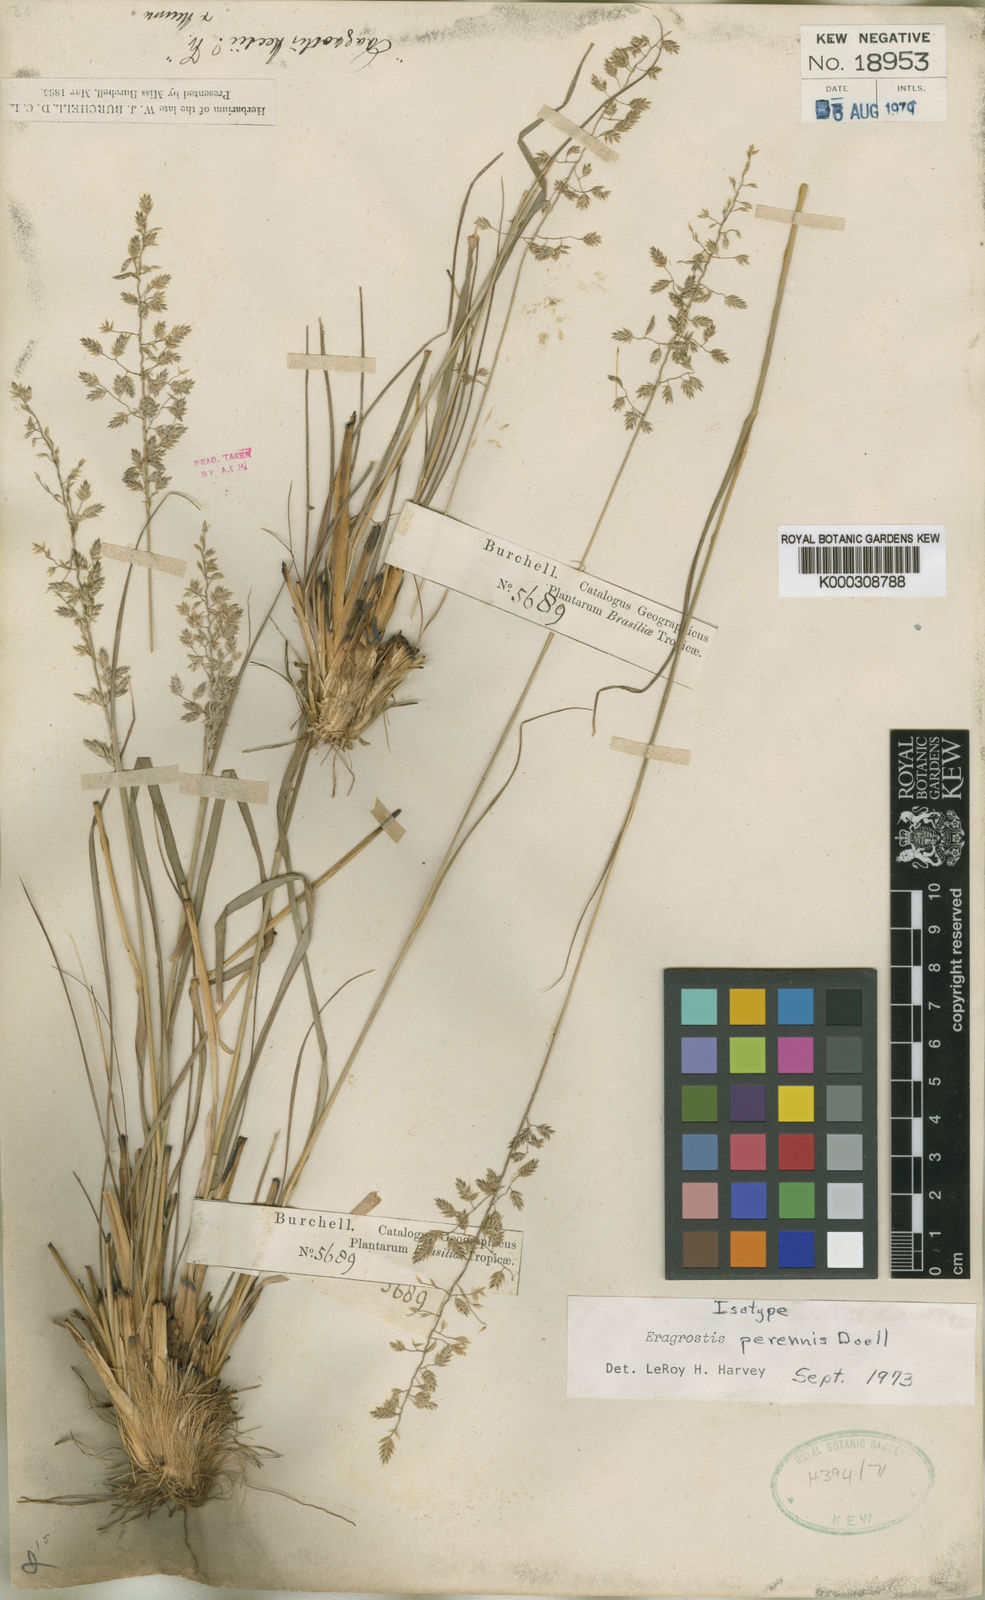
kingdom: Plantae
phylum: Tracheophyta
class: Liliopsida
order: Poales
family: Poaceae
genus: Eragrostis
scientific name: Eragrostis
